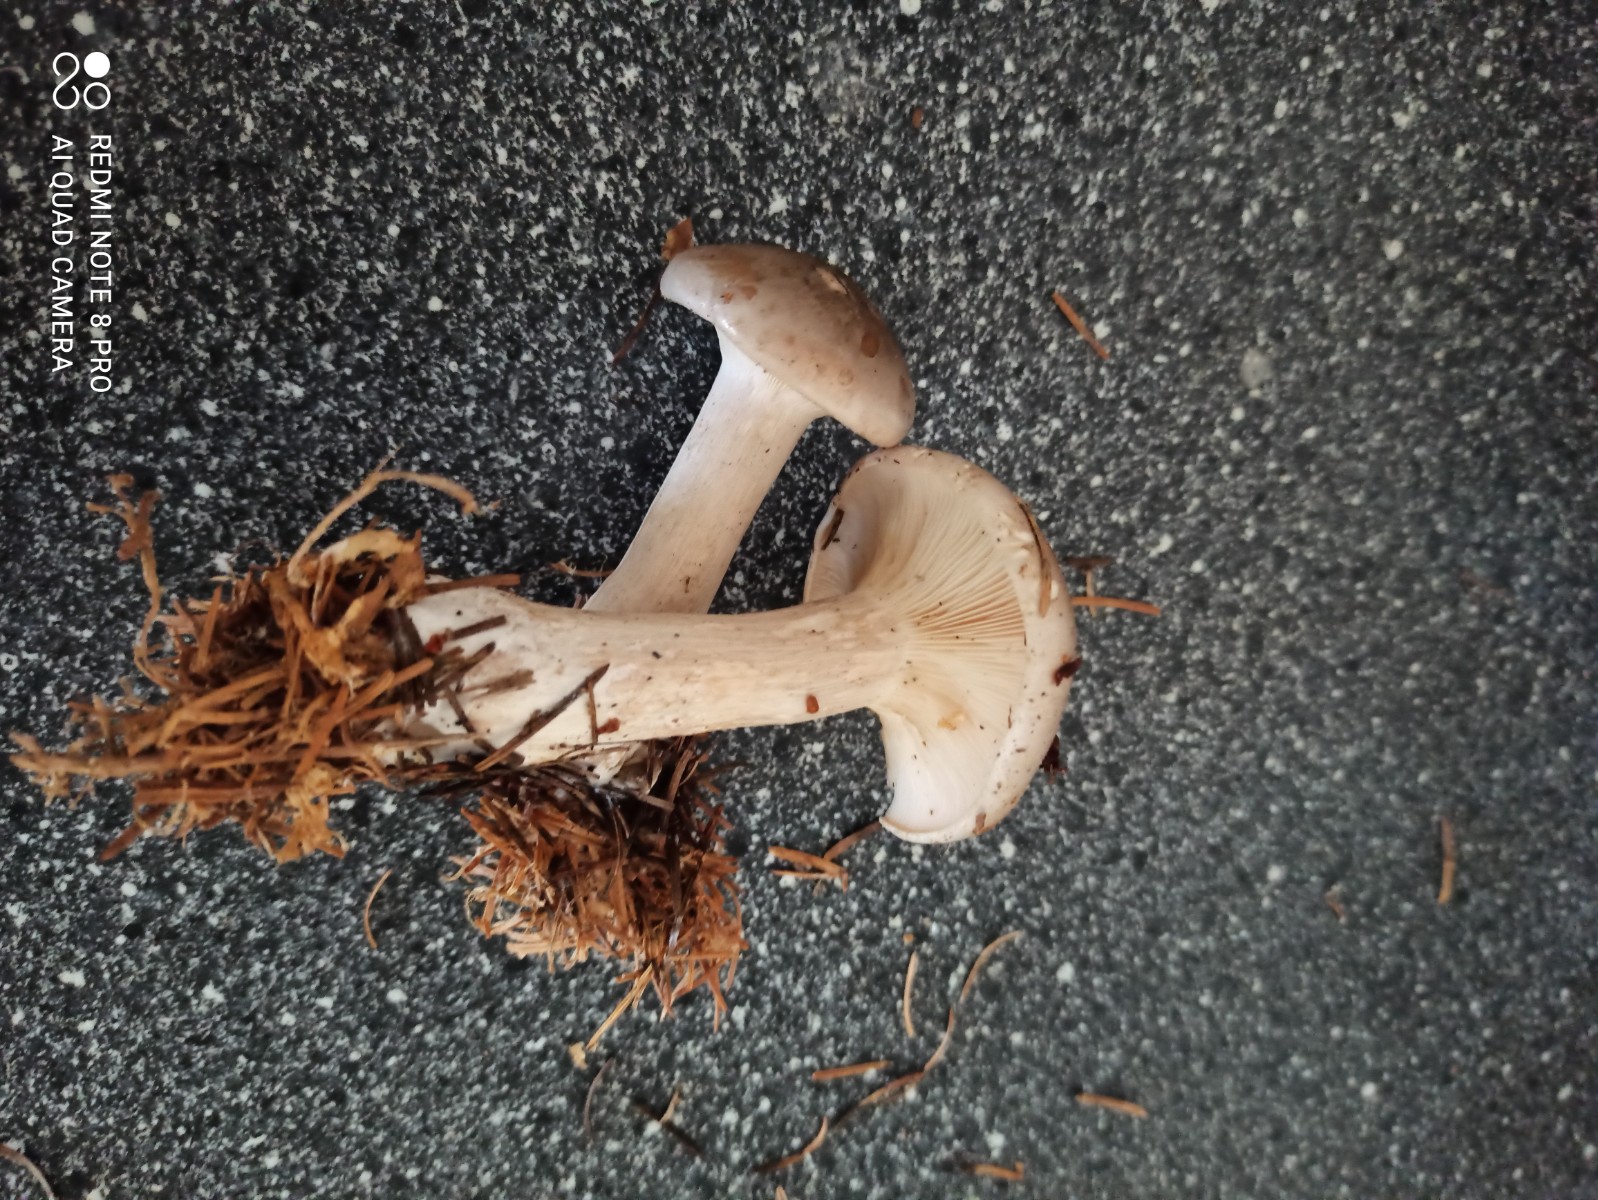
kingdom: Fungi
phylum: Basidiomycota
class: Agaricomycetes
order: Agaricales
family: Tricholomataceae
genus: Clitocybe
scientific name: Clitocybe nebularis
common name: tåge-tragthat
